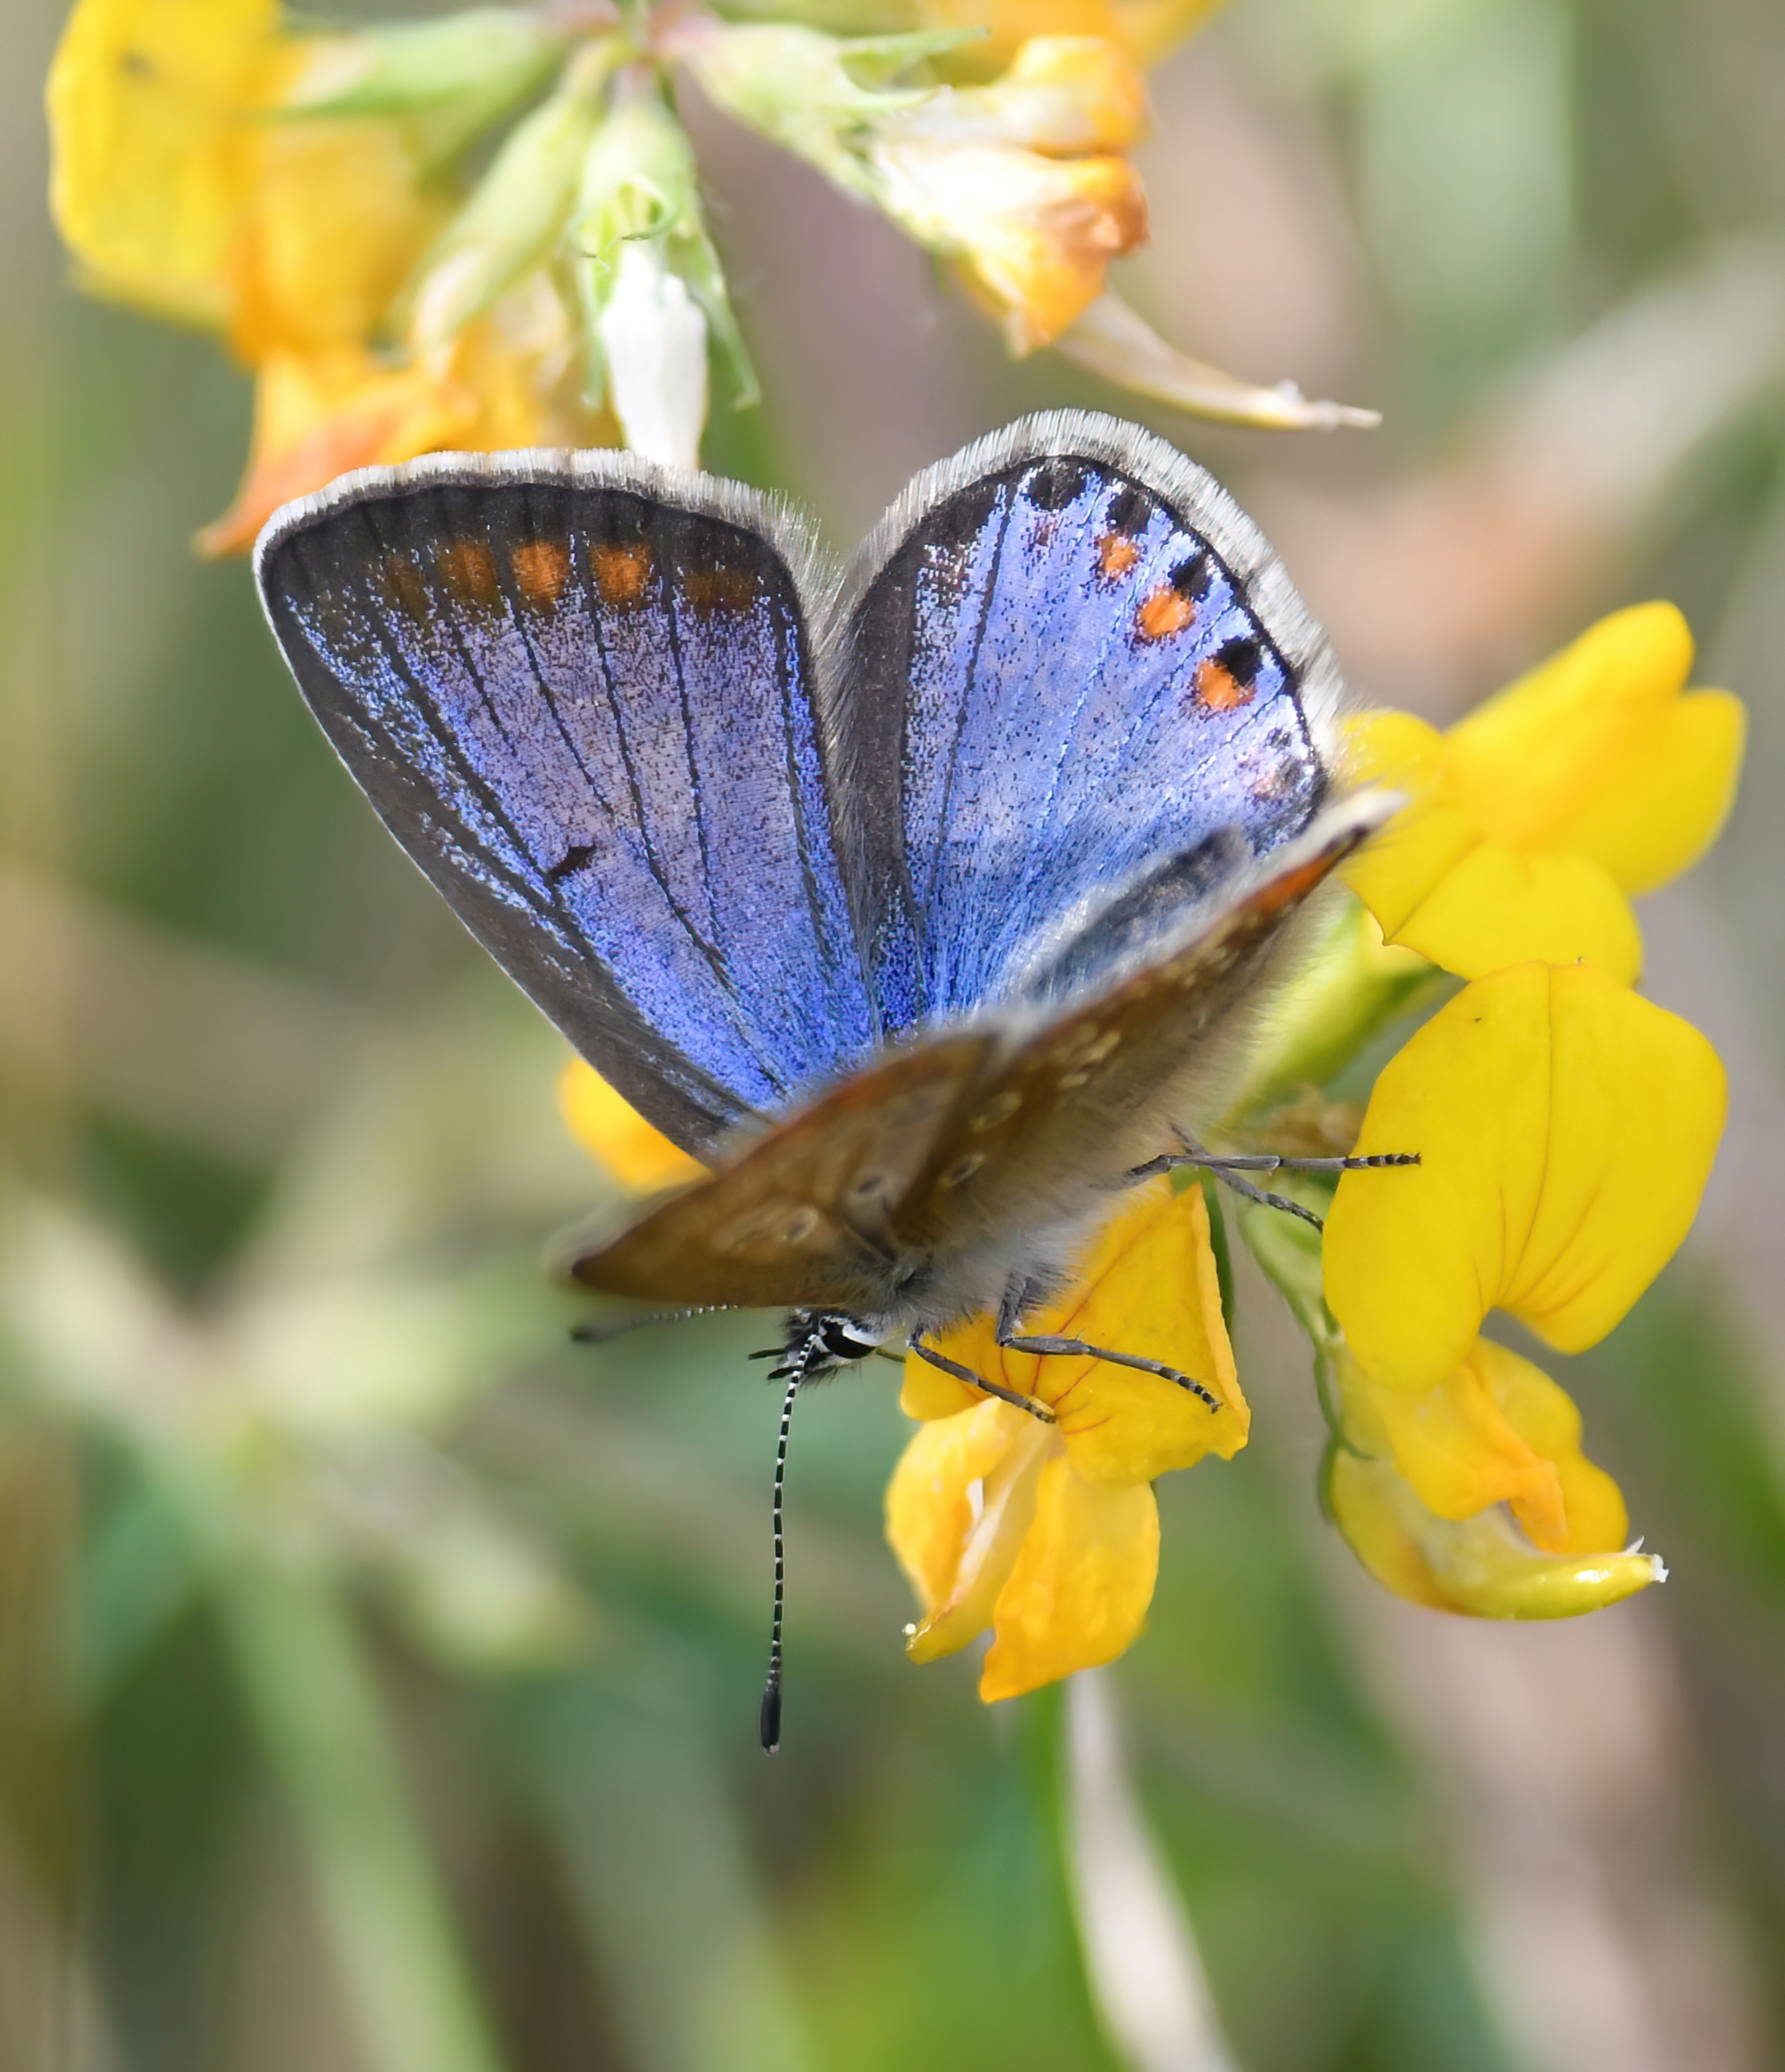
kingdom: Animalia
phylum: Arthropoda
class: Insecta
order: Lepidoptera
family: Lycaenidae
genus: Polyommatus
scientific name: Polyommatus icarus
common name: Almindelig blåfugl
